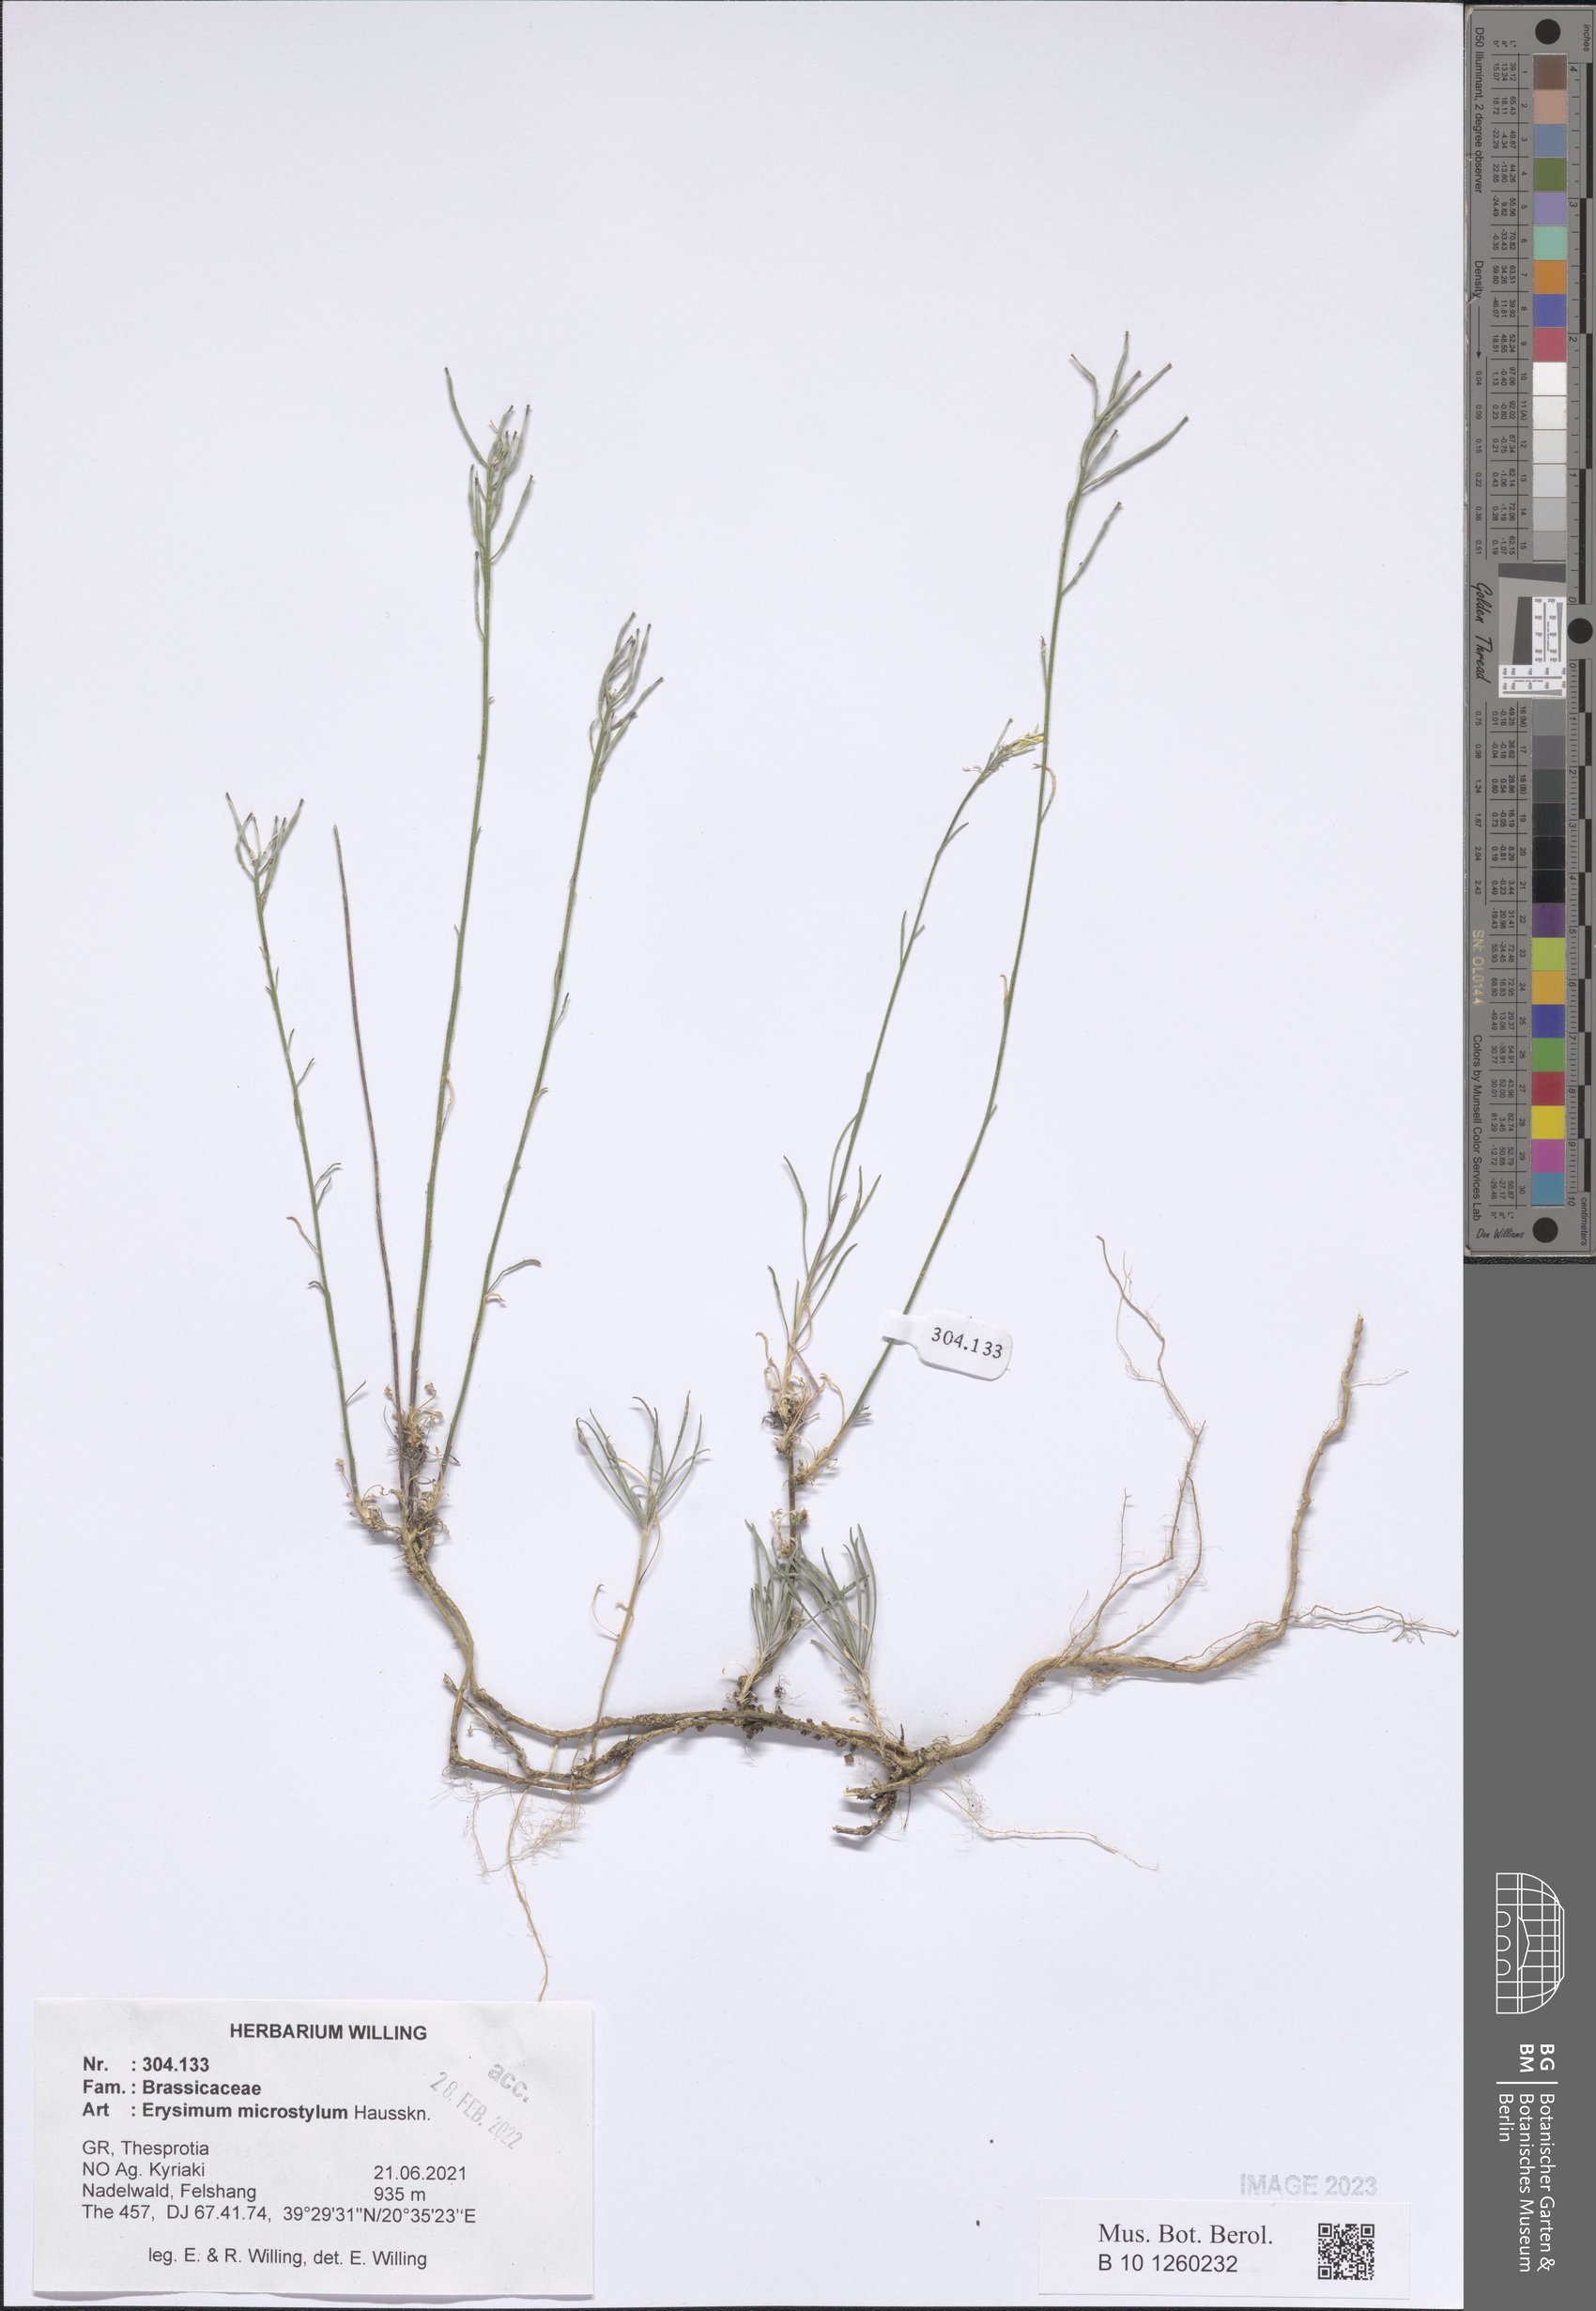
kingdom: Plantae
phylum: Tracheophyta
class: Magnoliopsida
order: Brassicales
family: Brassicaceae
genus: Erysimum
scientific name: Erysimum pusillum
